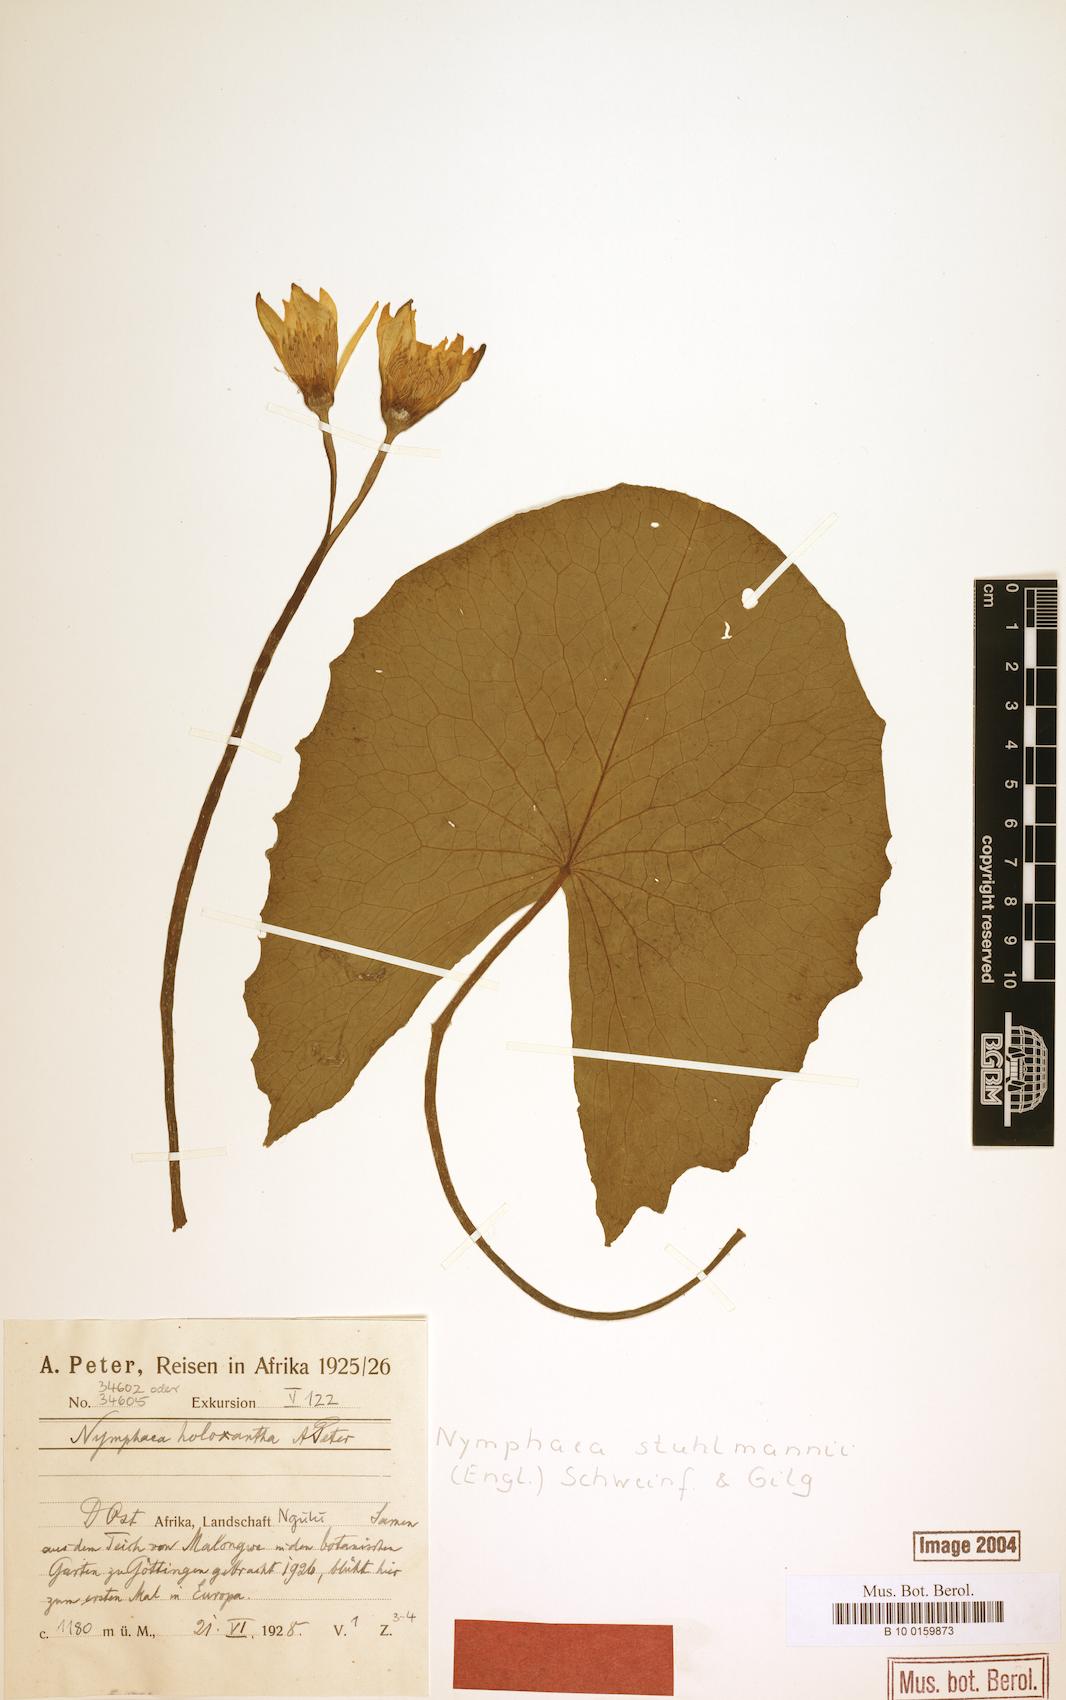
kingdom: Plantae
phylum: Tracheophyta
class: Magnoliopsida
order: Nymphaeales
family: Nymphaeaceae
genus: Nymphaea
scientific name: Nymphaea stuhlmannii
